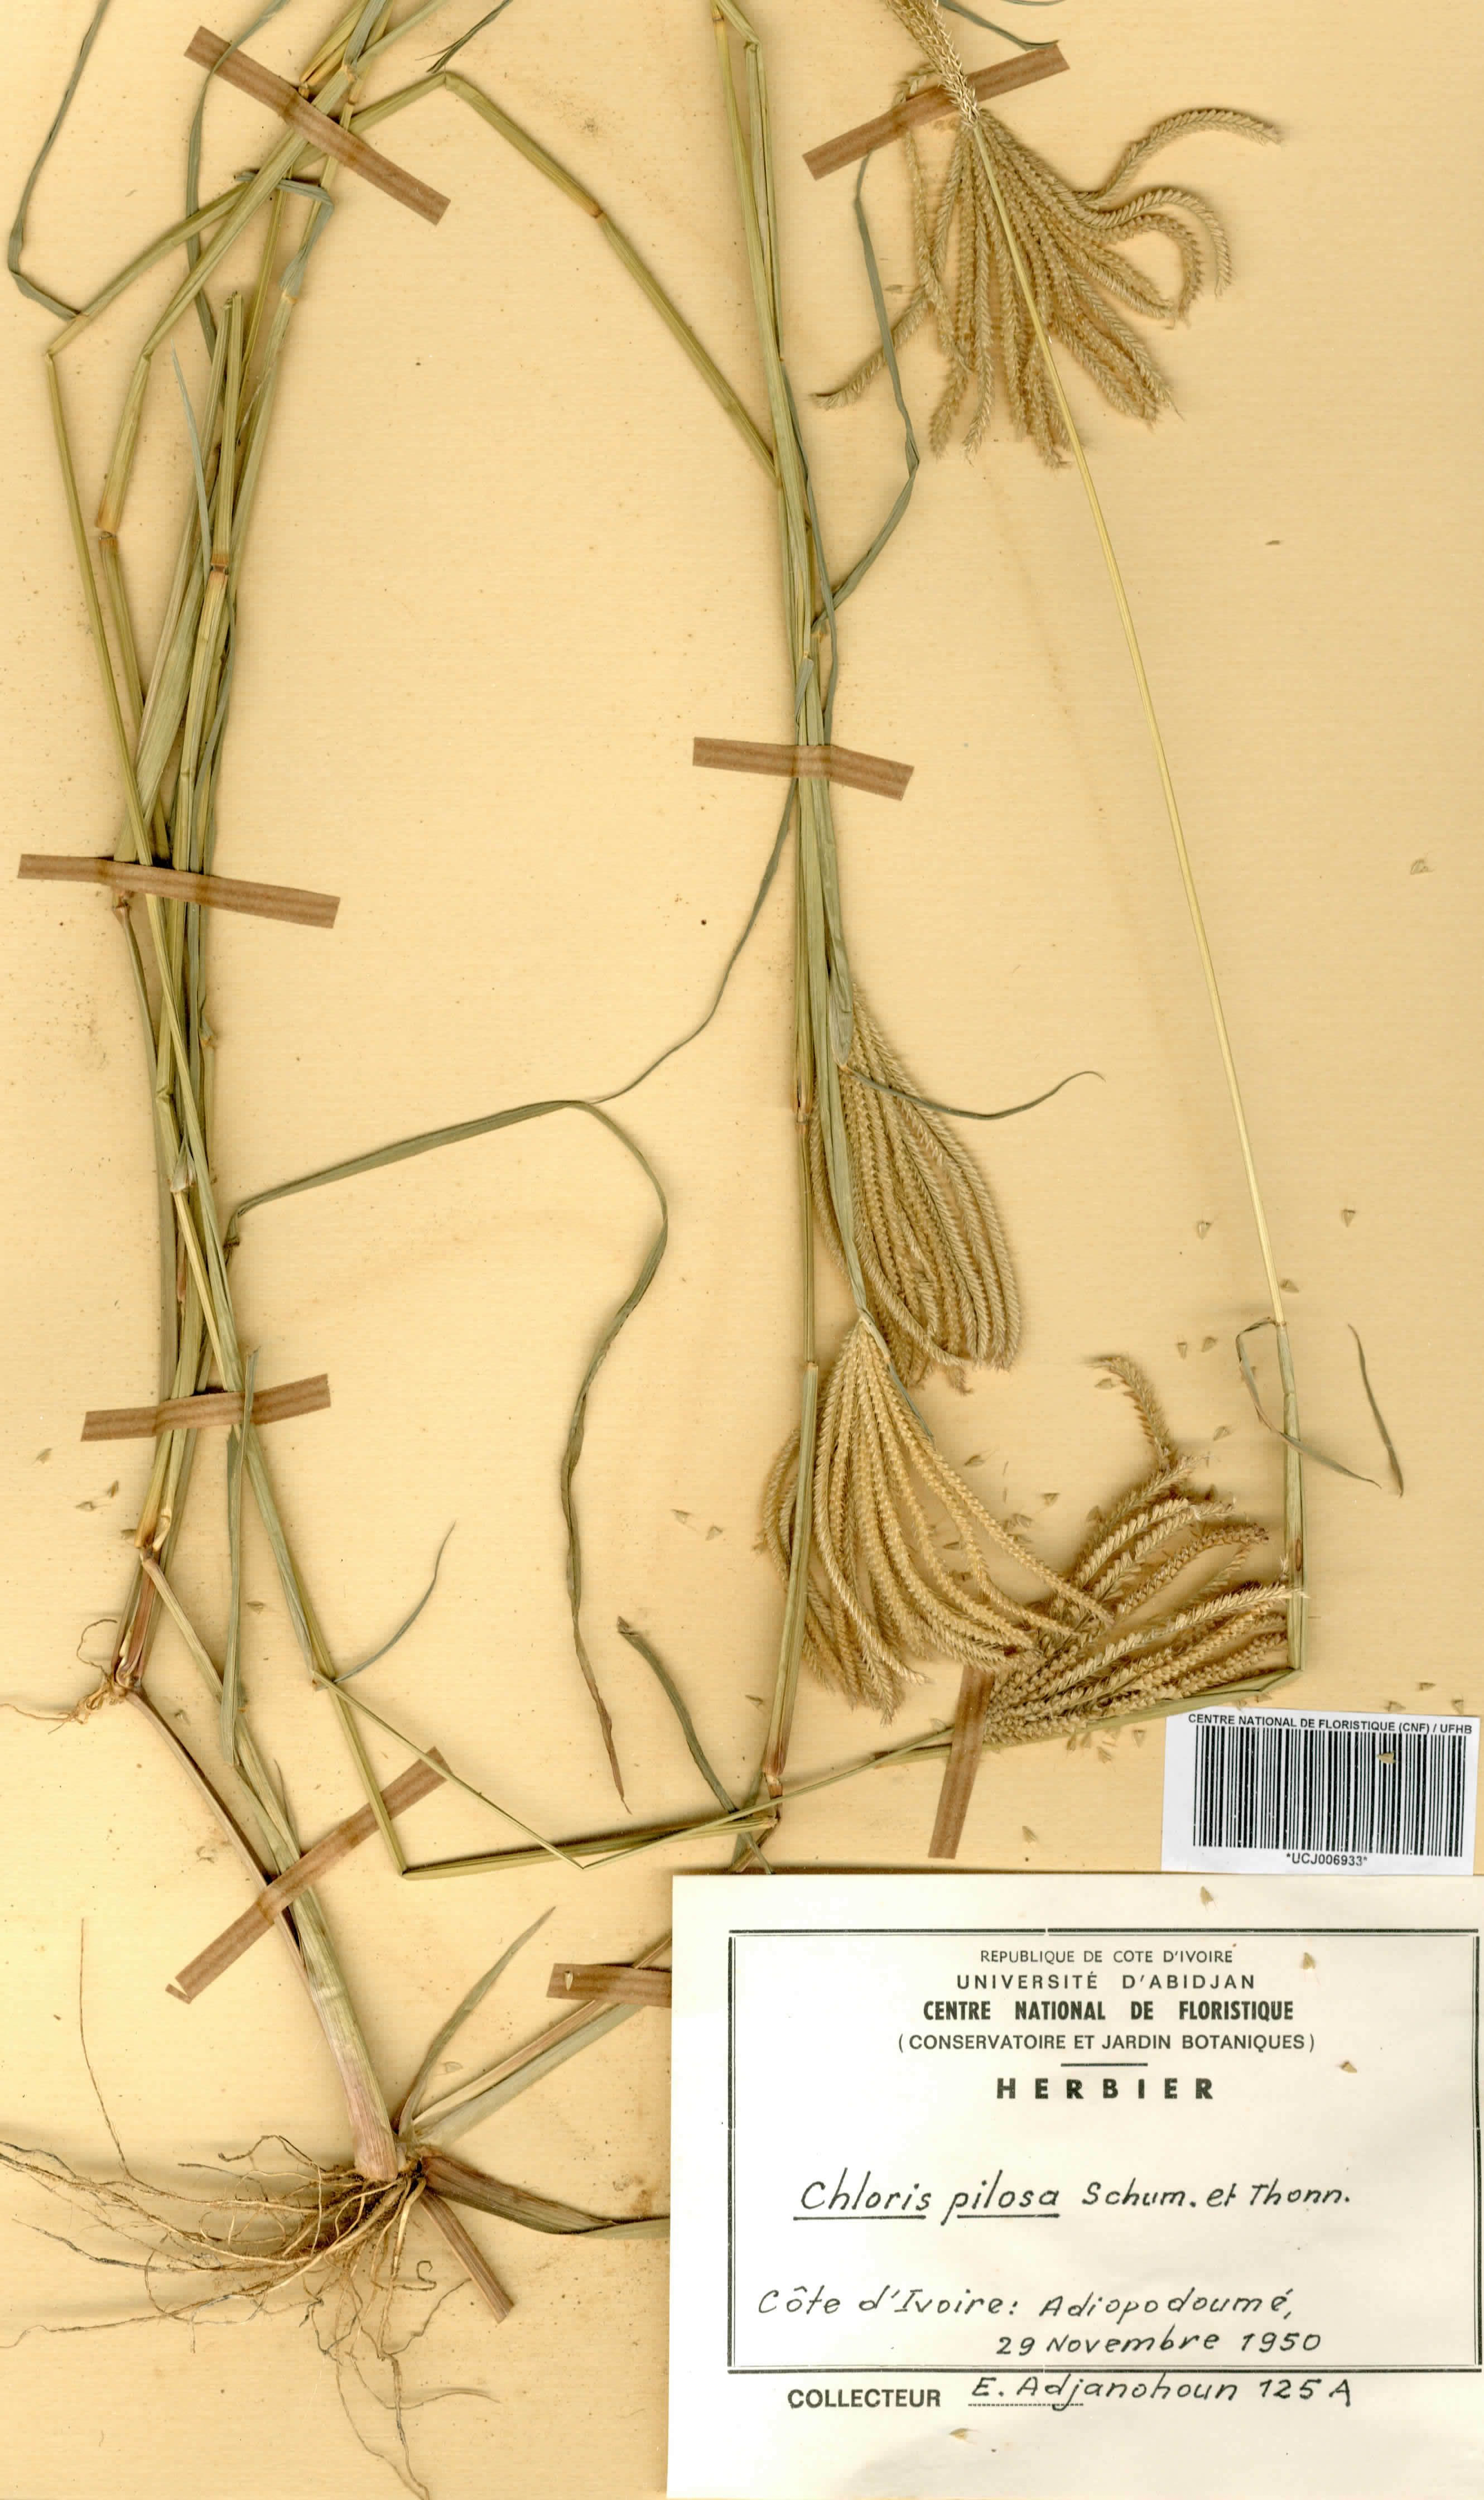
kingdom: Plantae
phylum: Tracheophyta
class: Liliopsida
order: Poales
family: Poaceae
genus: Chloris
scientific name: Chloris pilosa
